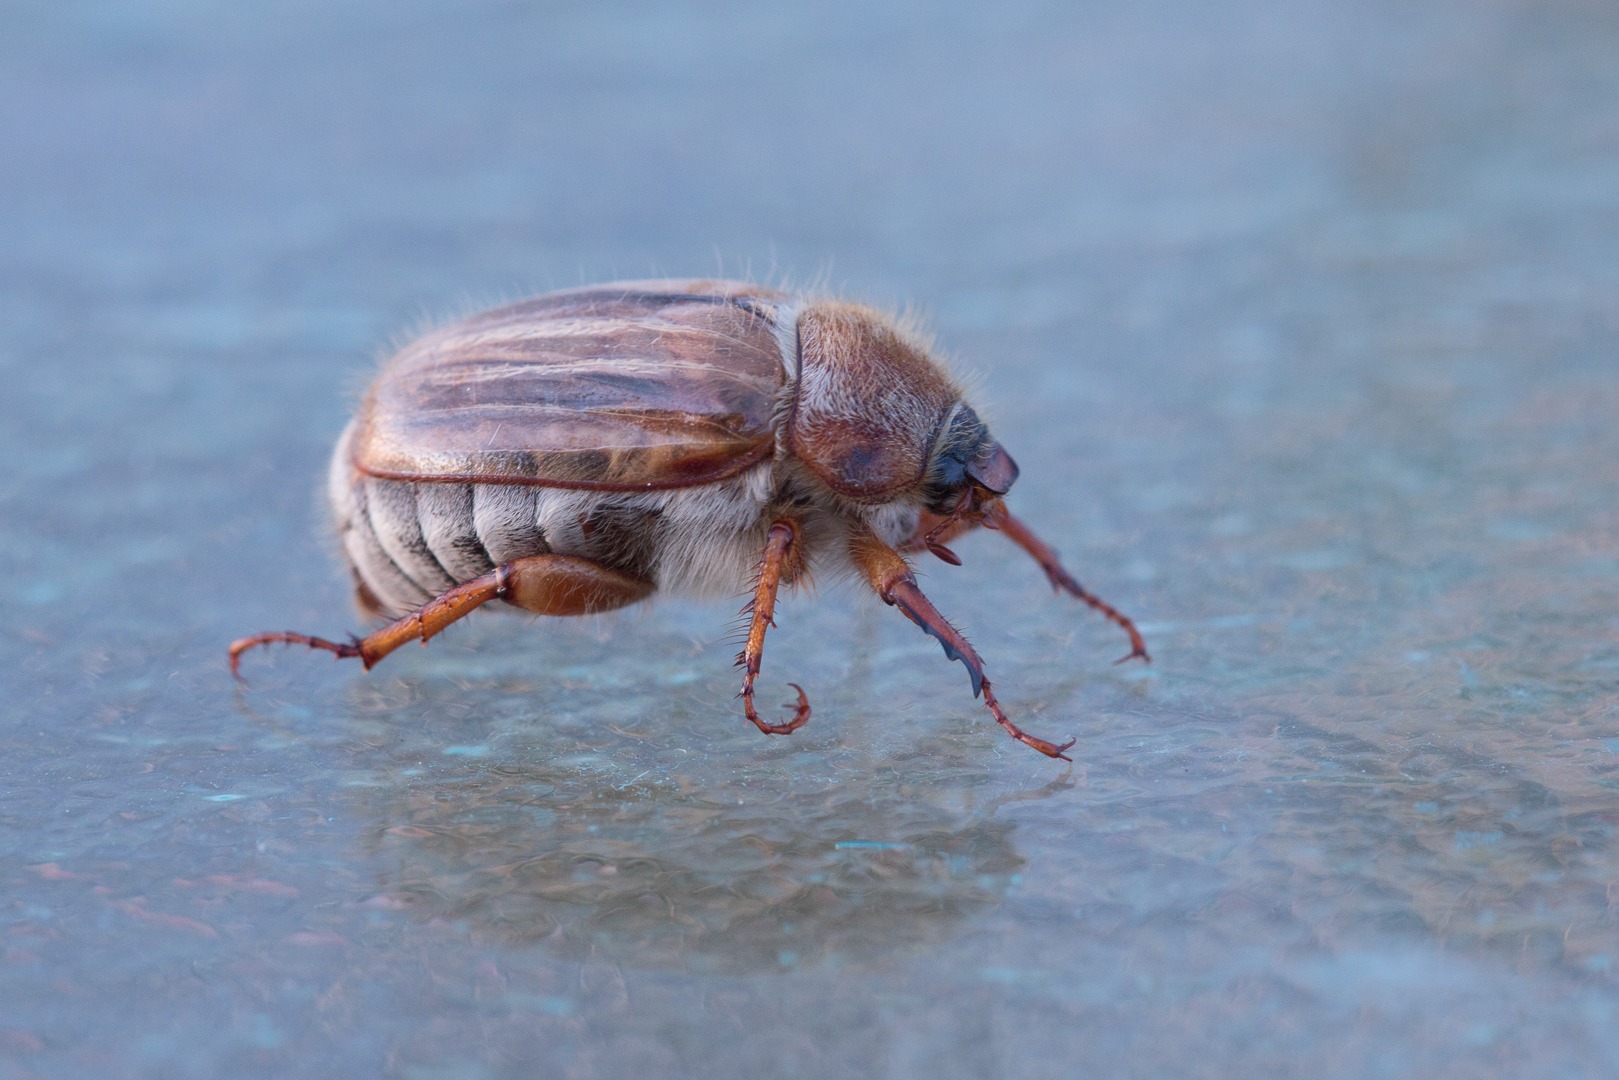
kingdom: Animalia
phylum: Arthropoda
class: Insecta
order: Coleoptera
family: Scarabaeidae
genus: Amphimallon
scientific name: Amphimallon solstitiale
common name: Sankthansoldenborre
